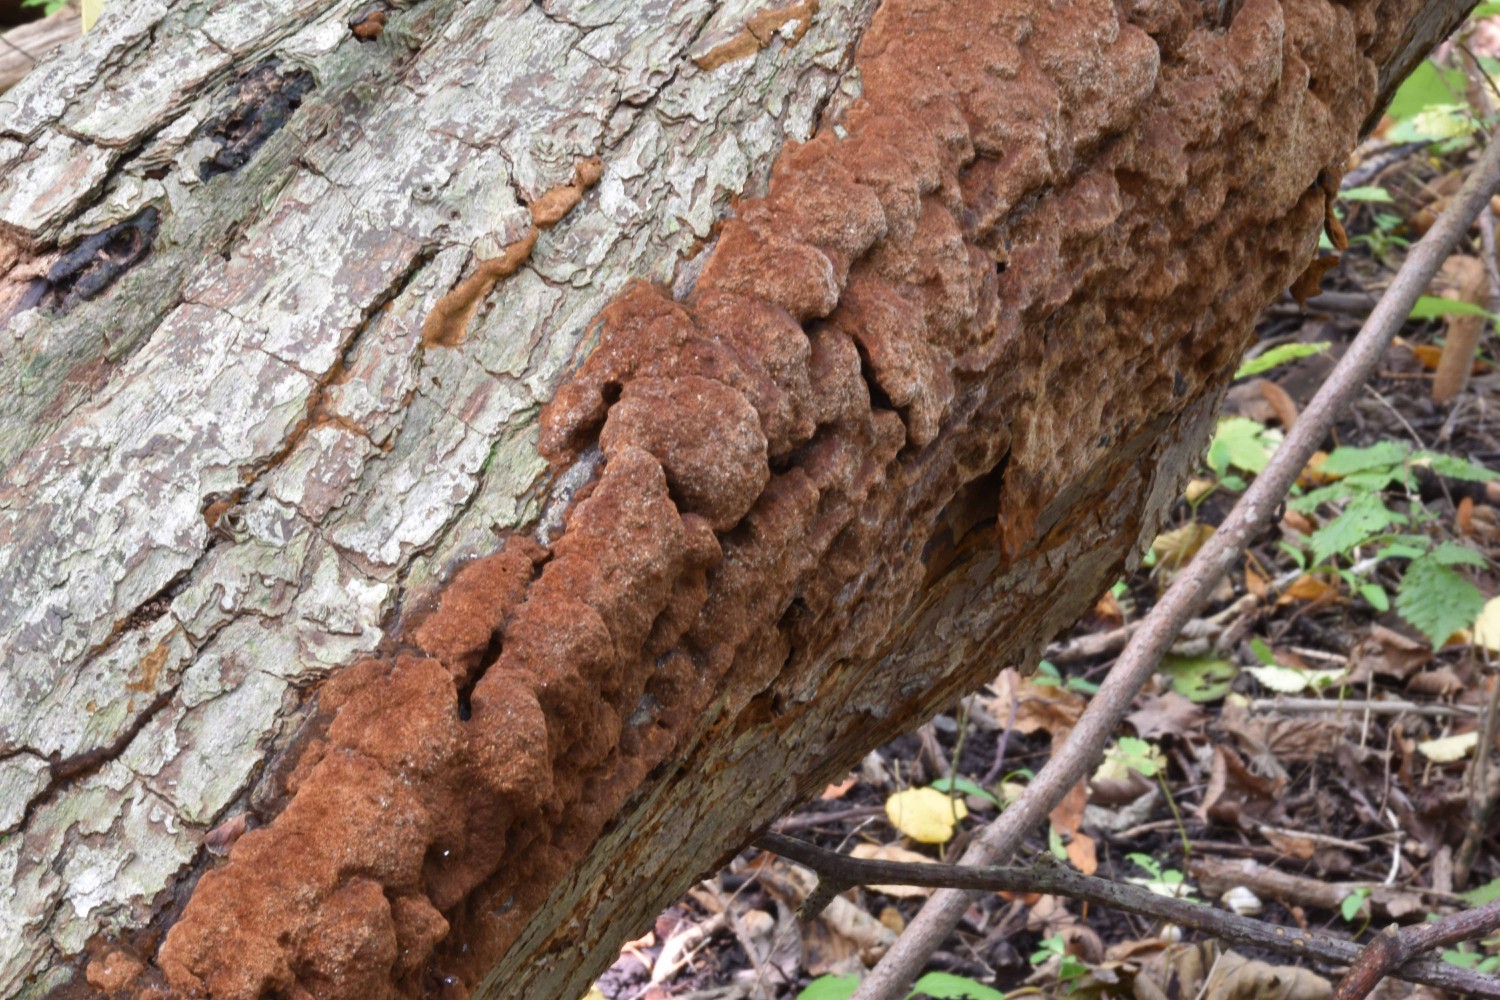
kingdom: Fungi
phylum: Basidiomycota
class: Agaricomycetes
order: Hymenochaetales
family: Hymenochaetaceae
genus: Fuscoporia
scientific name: Fuscoporia ferrea
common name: skorpe-ildporesvamp
